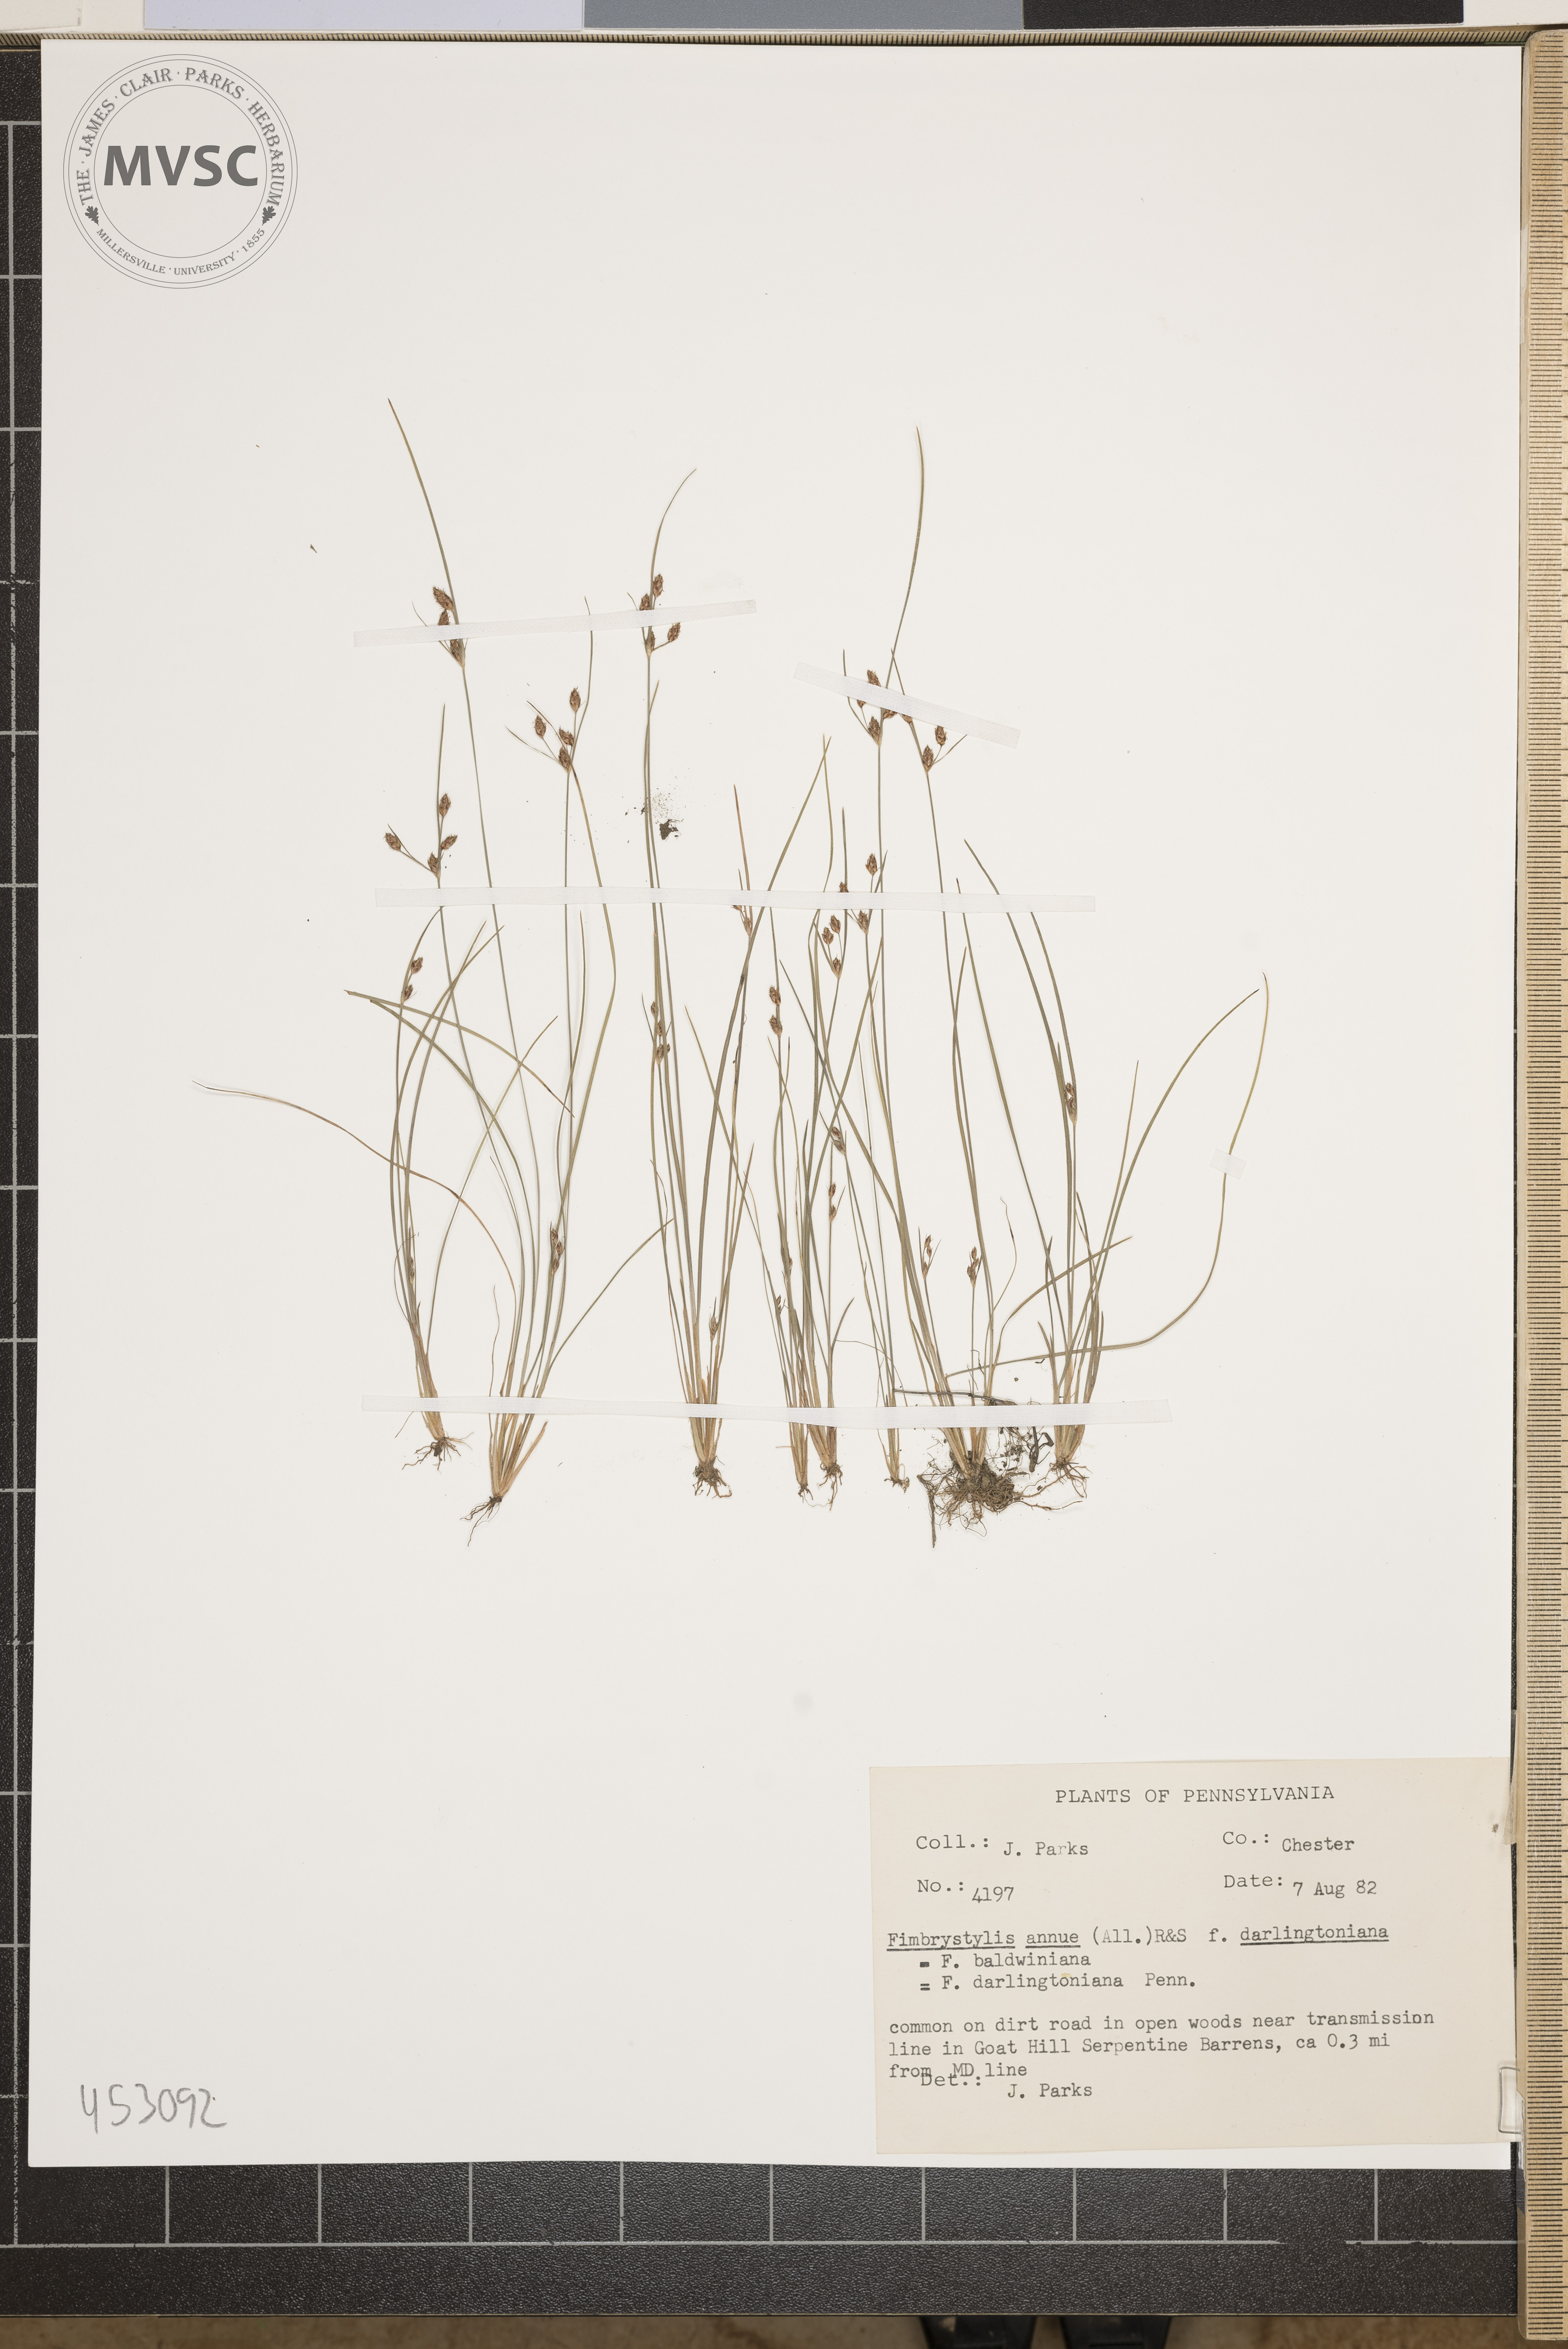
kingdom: Plantae
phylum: Tracheophyta
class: Liliopsida
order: Poales
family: Cyperaceae
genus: Fimbristylis
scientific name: Fimbristylis annua
